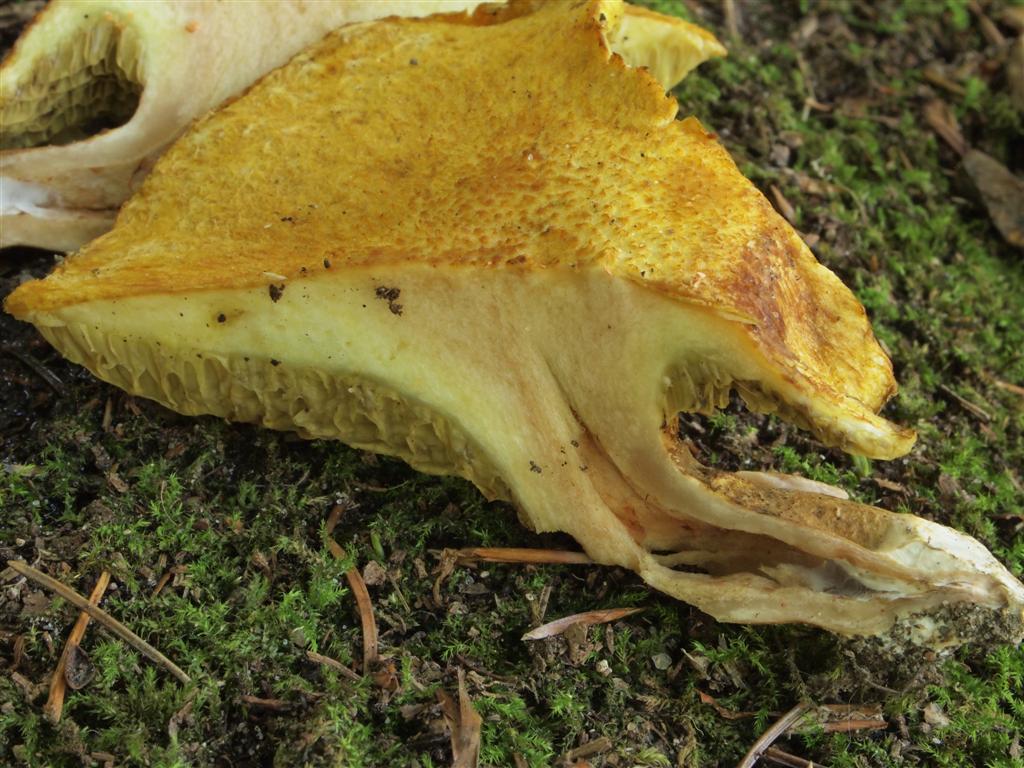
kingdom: Fungi
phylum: Basidiomycota
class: Agaricomycetes
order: Boletales
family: Suillaceae
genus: Suillus
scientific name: Suillus cavipes
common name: hulstokket slimrørhat, gul form
